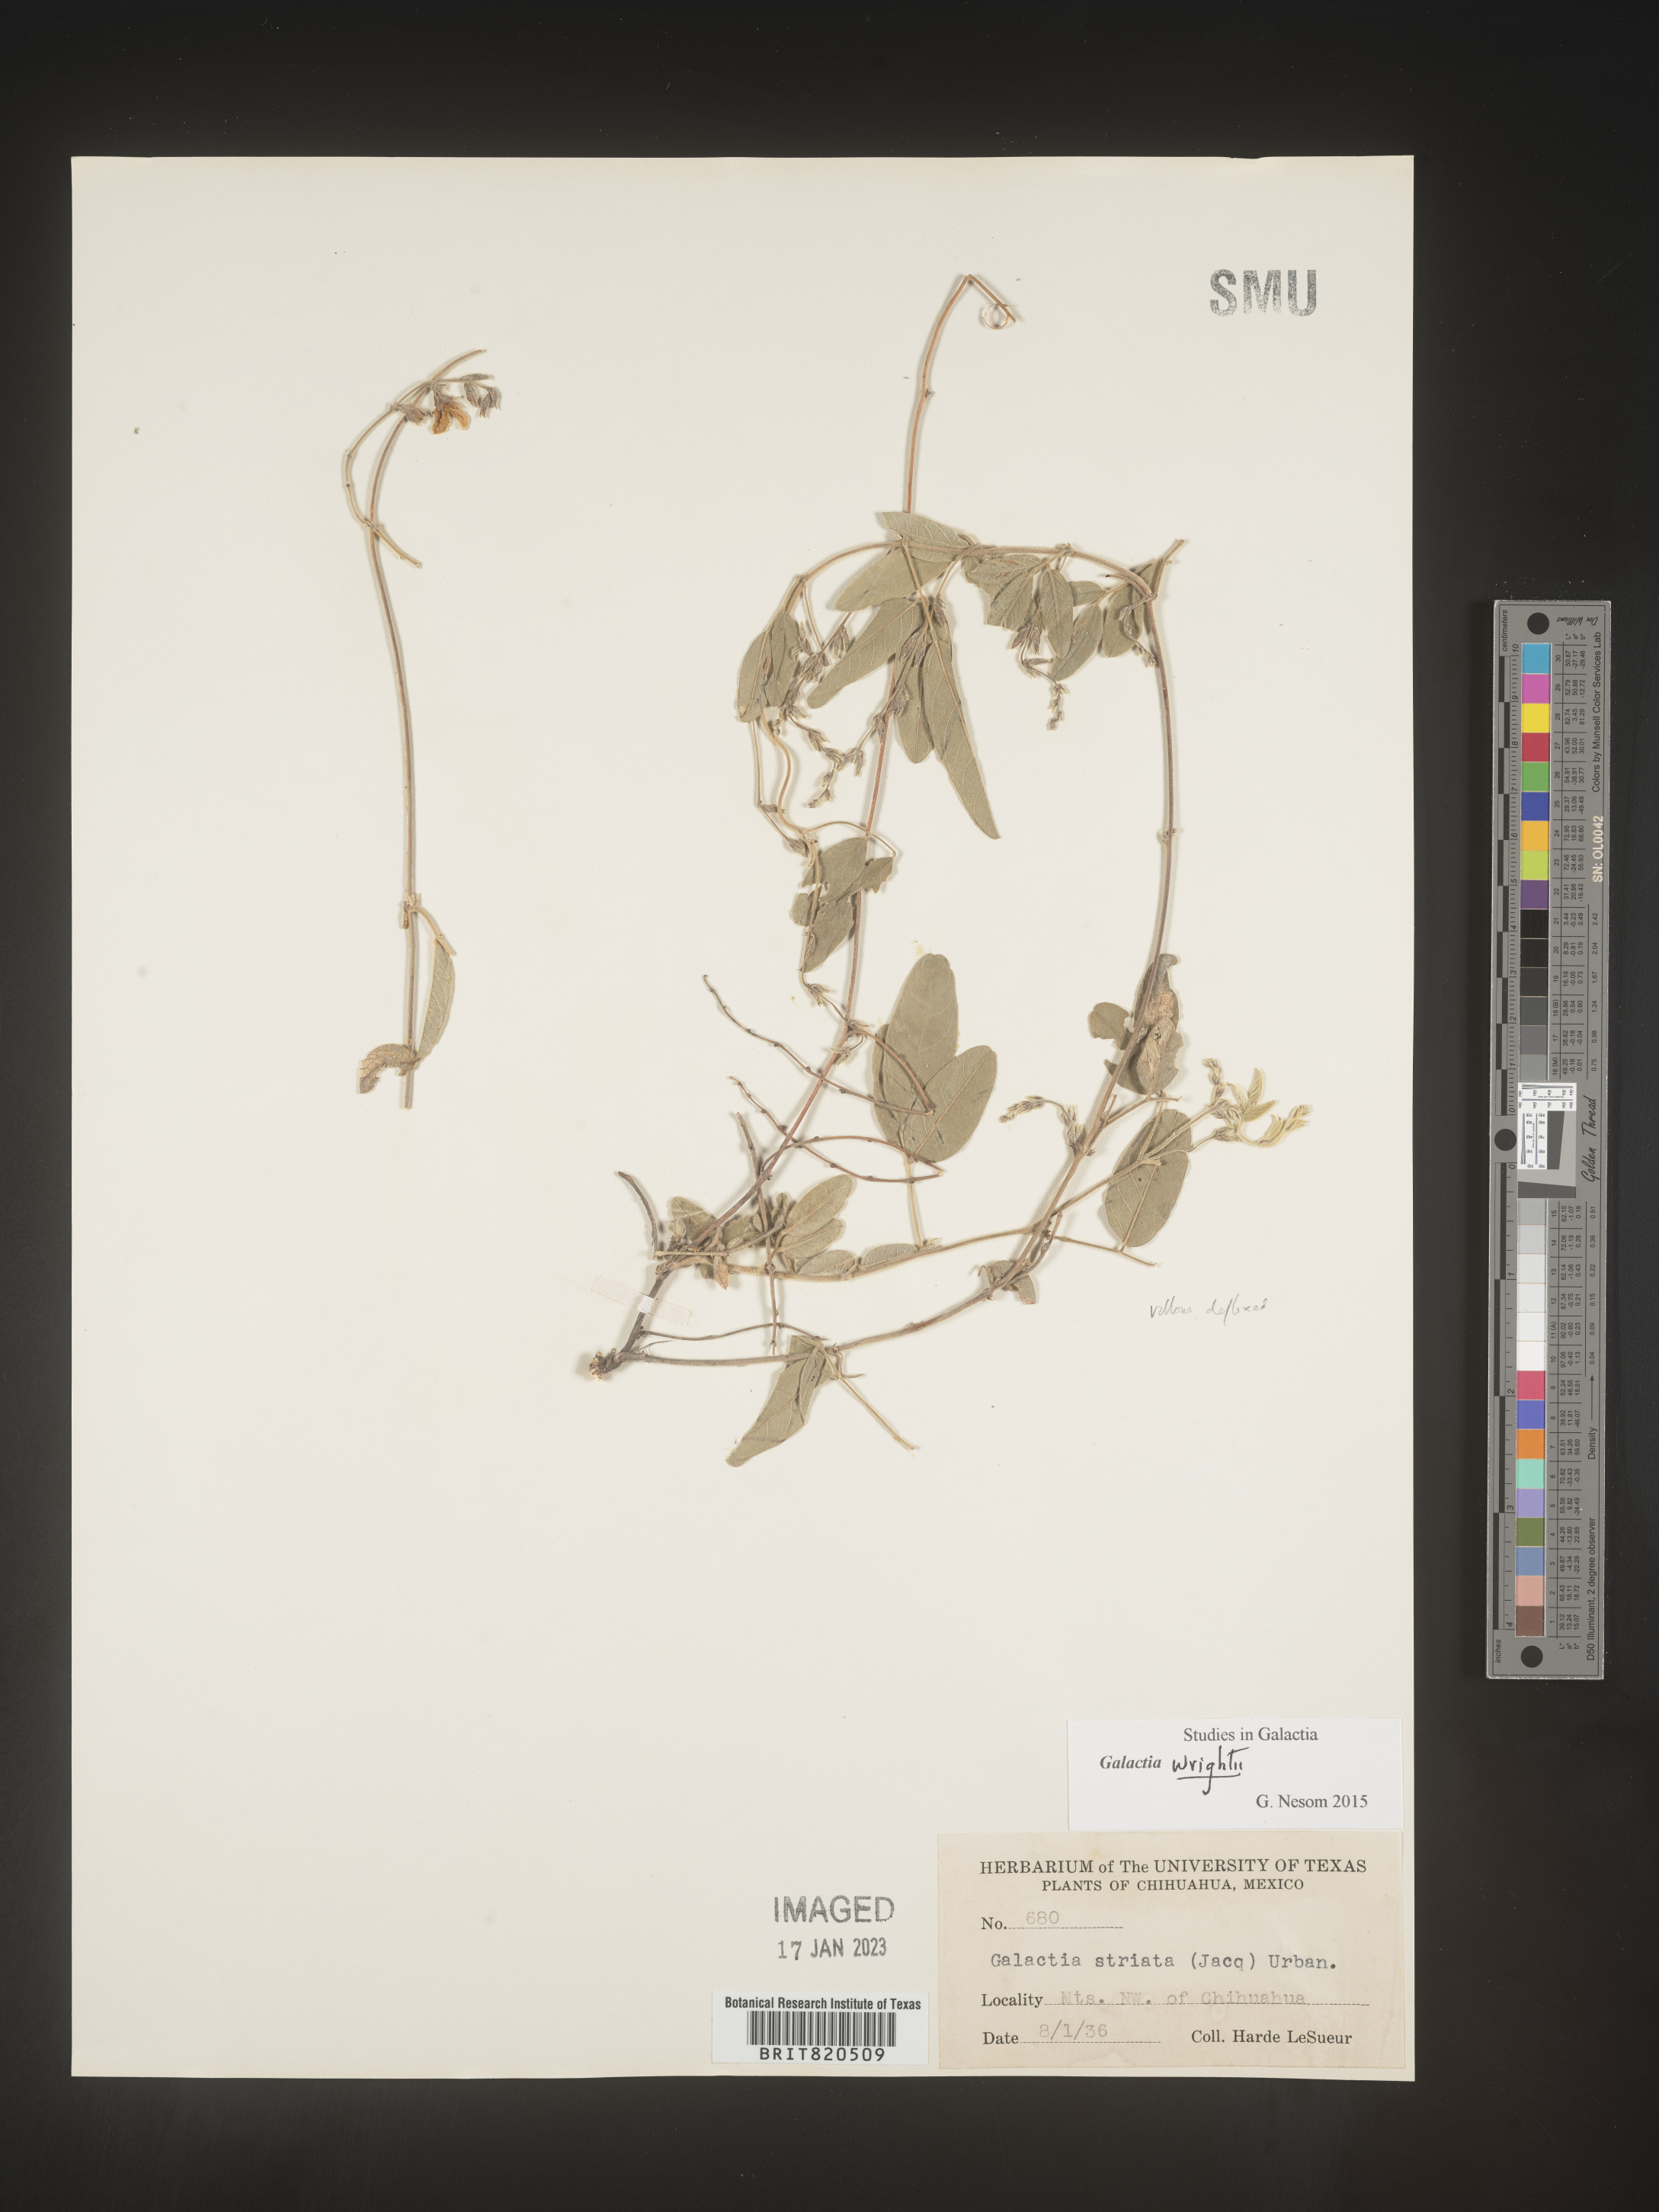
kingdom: Plantae
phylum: Tracheophyta
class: Magnoliopsida
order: Fabales
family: Fabaceae
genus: Galactia
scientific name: Galactia wrightii
